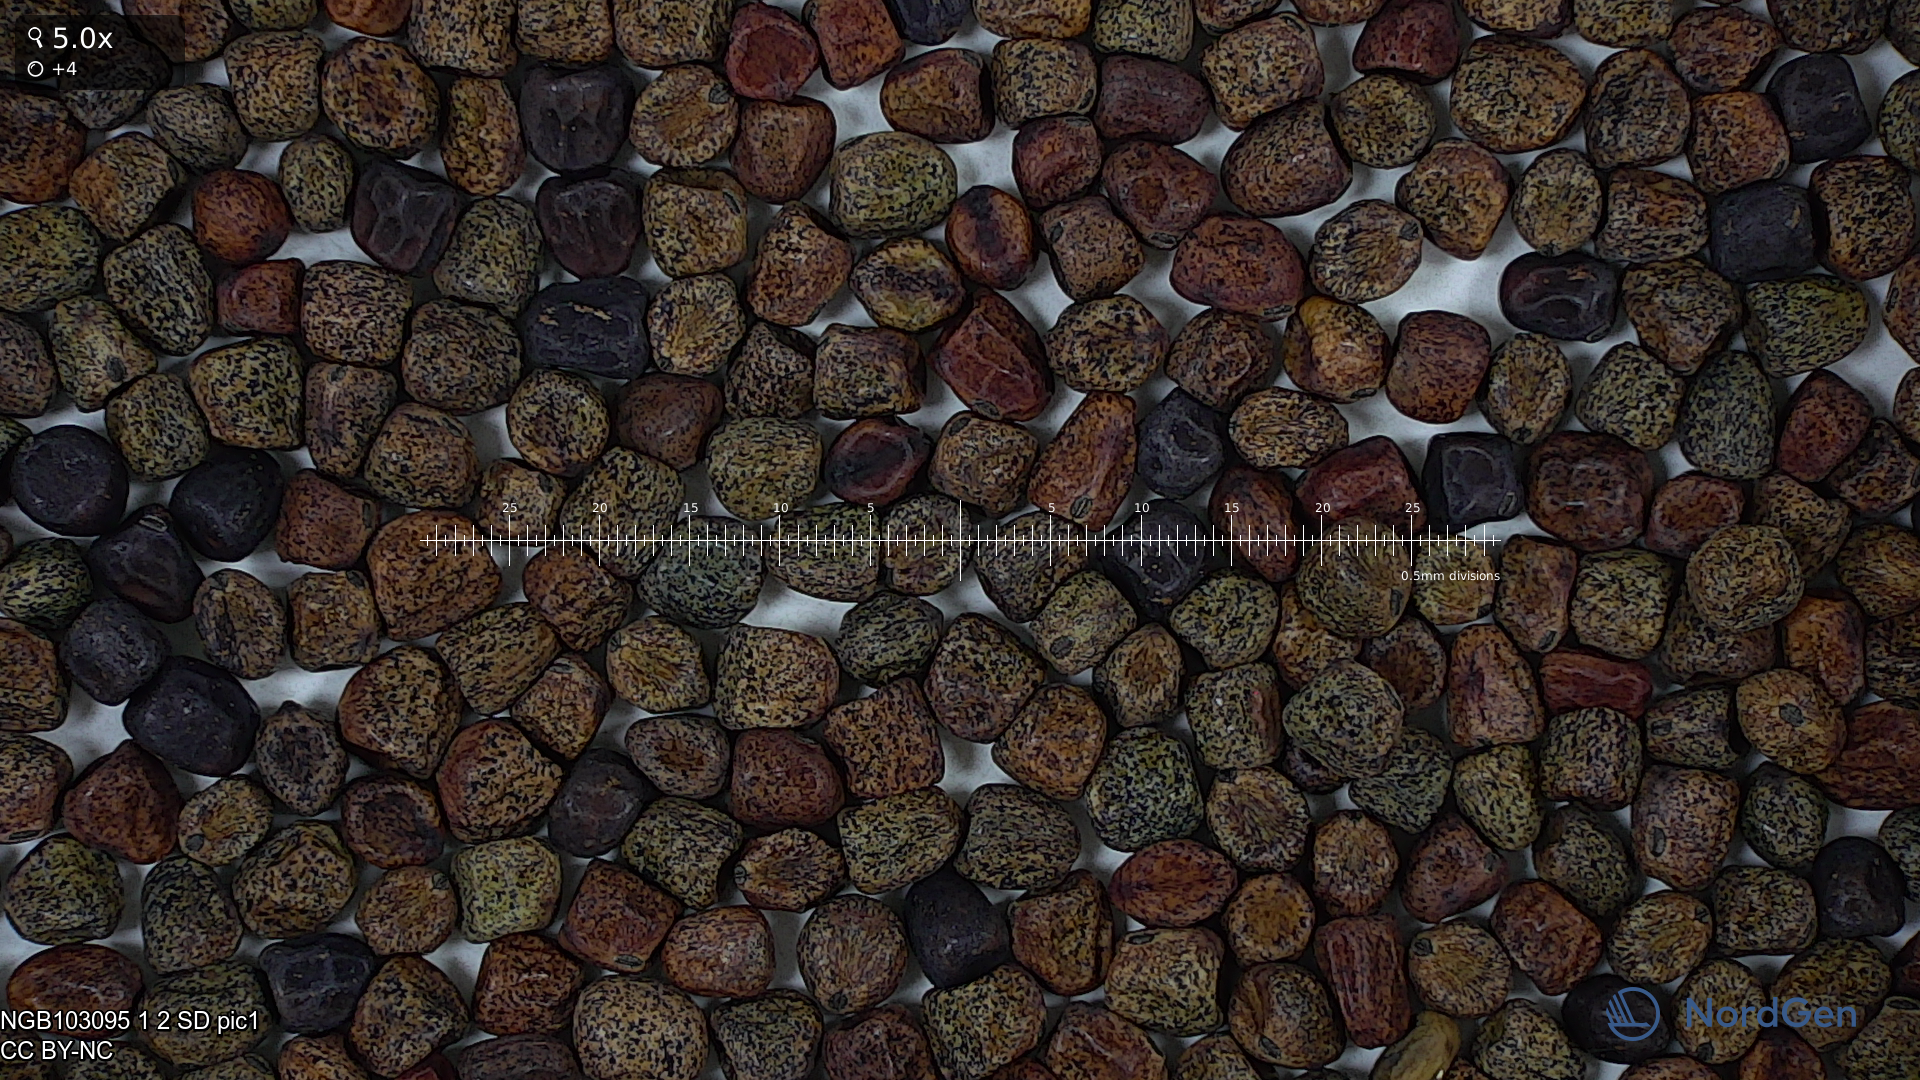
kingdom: Plantae
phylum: Tracheophyta
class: Magnoliopsida
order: Fabales
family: Fabaceae
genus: Lathyrus
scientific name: Lathyrus oleraceus
